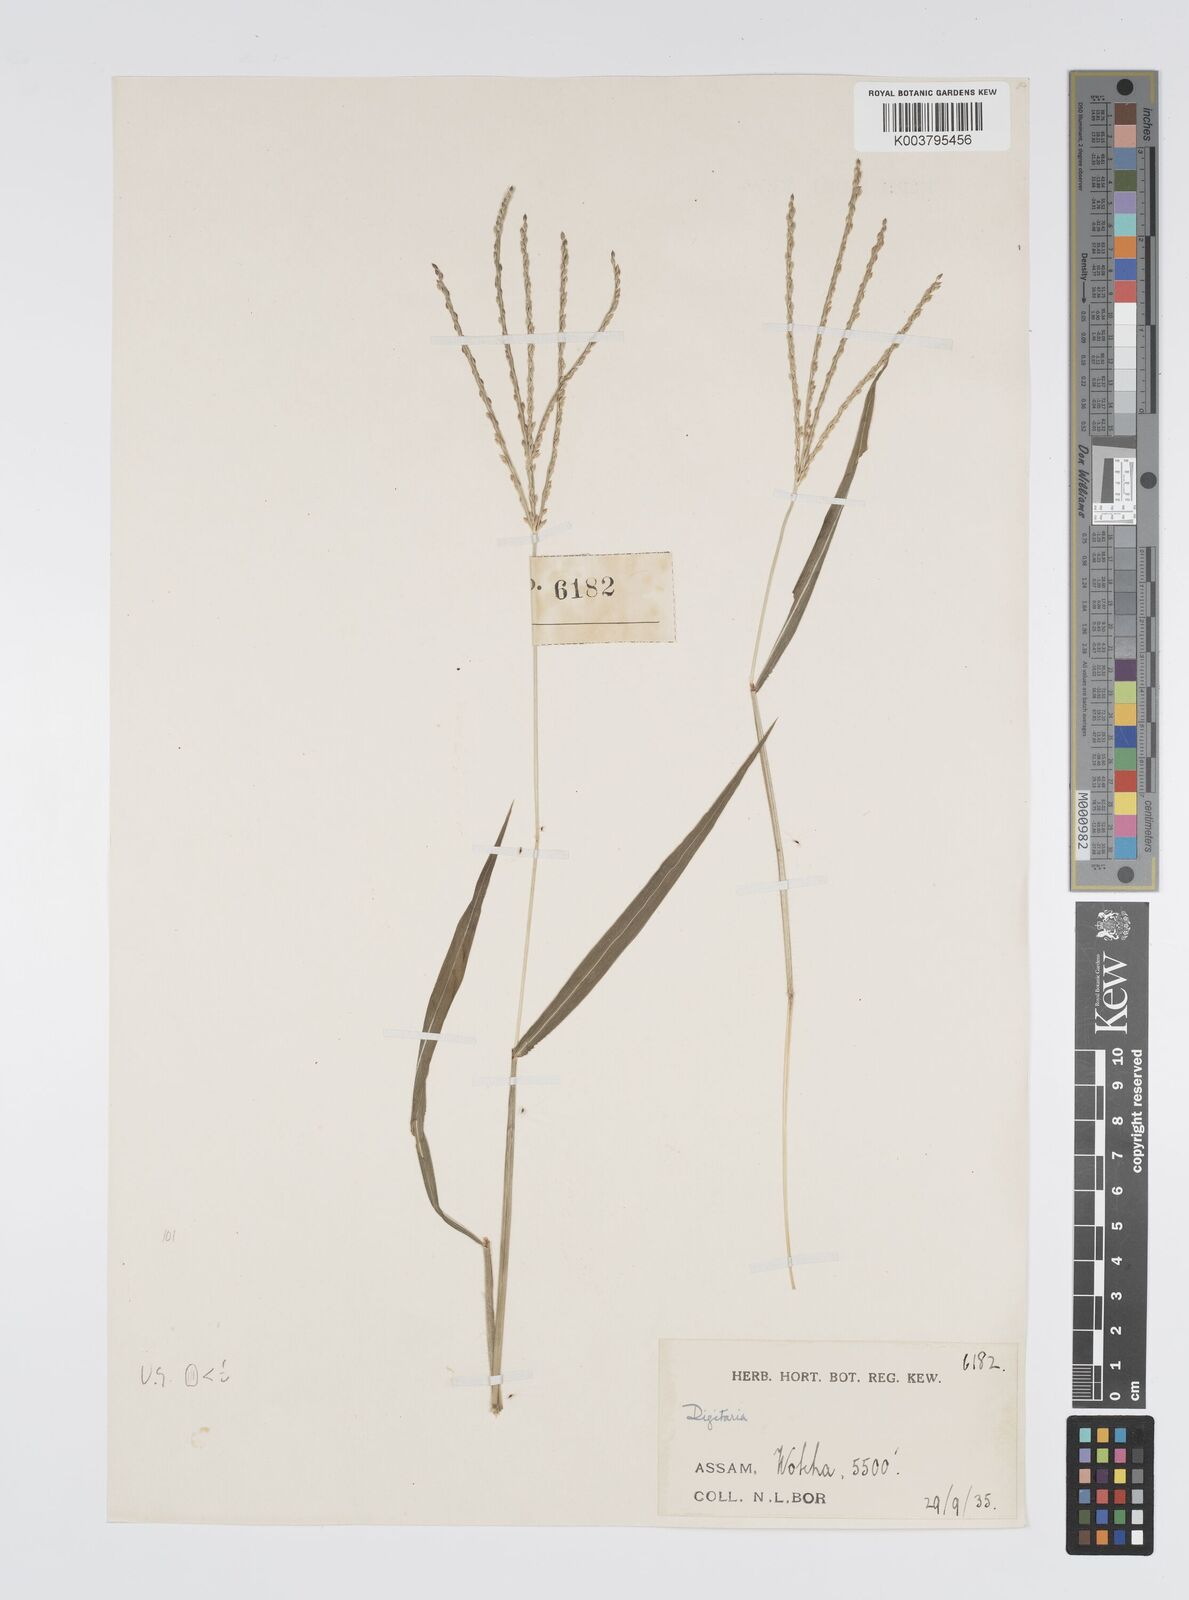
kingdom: Plantae
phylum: Tracheophyta
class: Liliopsida
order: Poales
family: Poaceae
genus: Digitaria
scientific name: Digitaria cruciata
